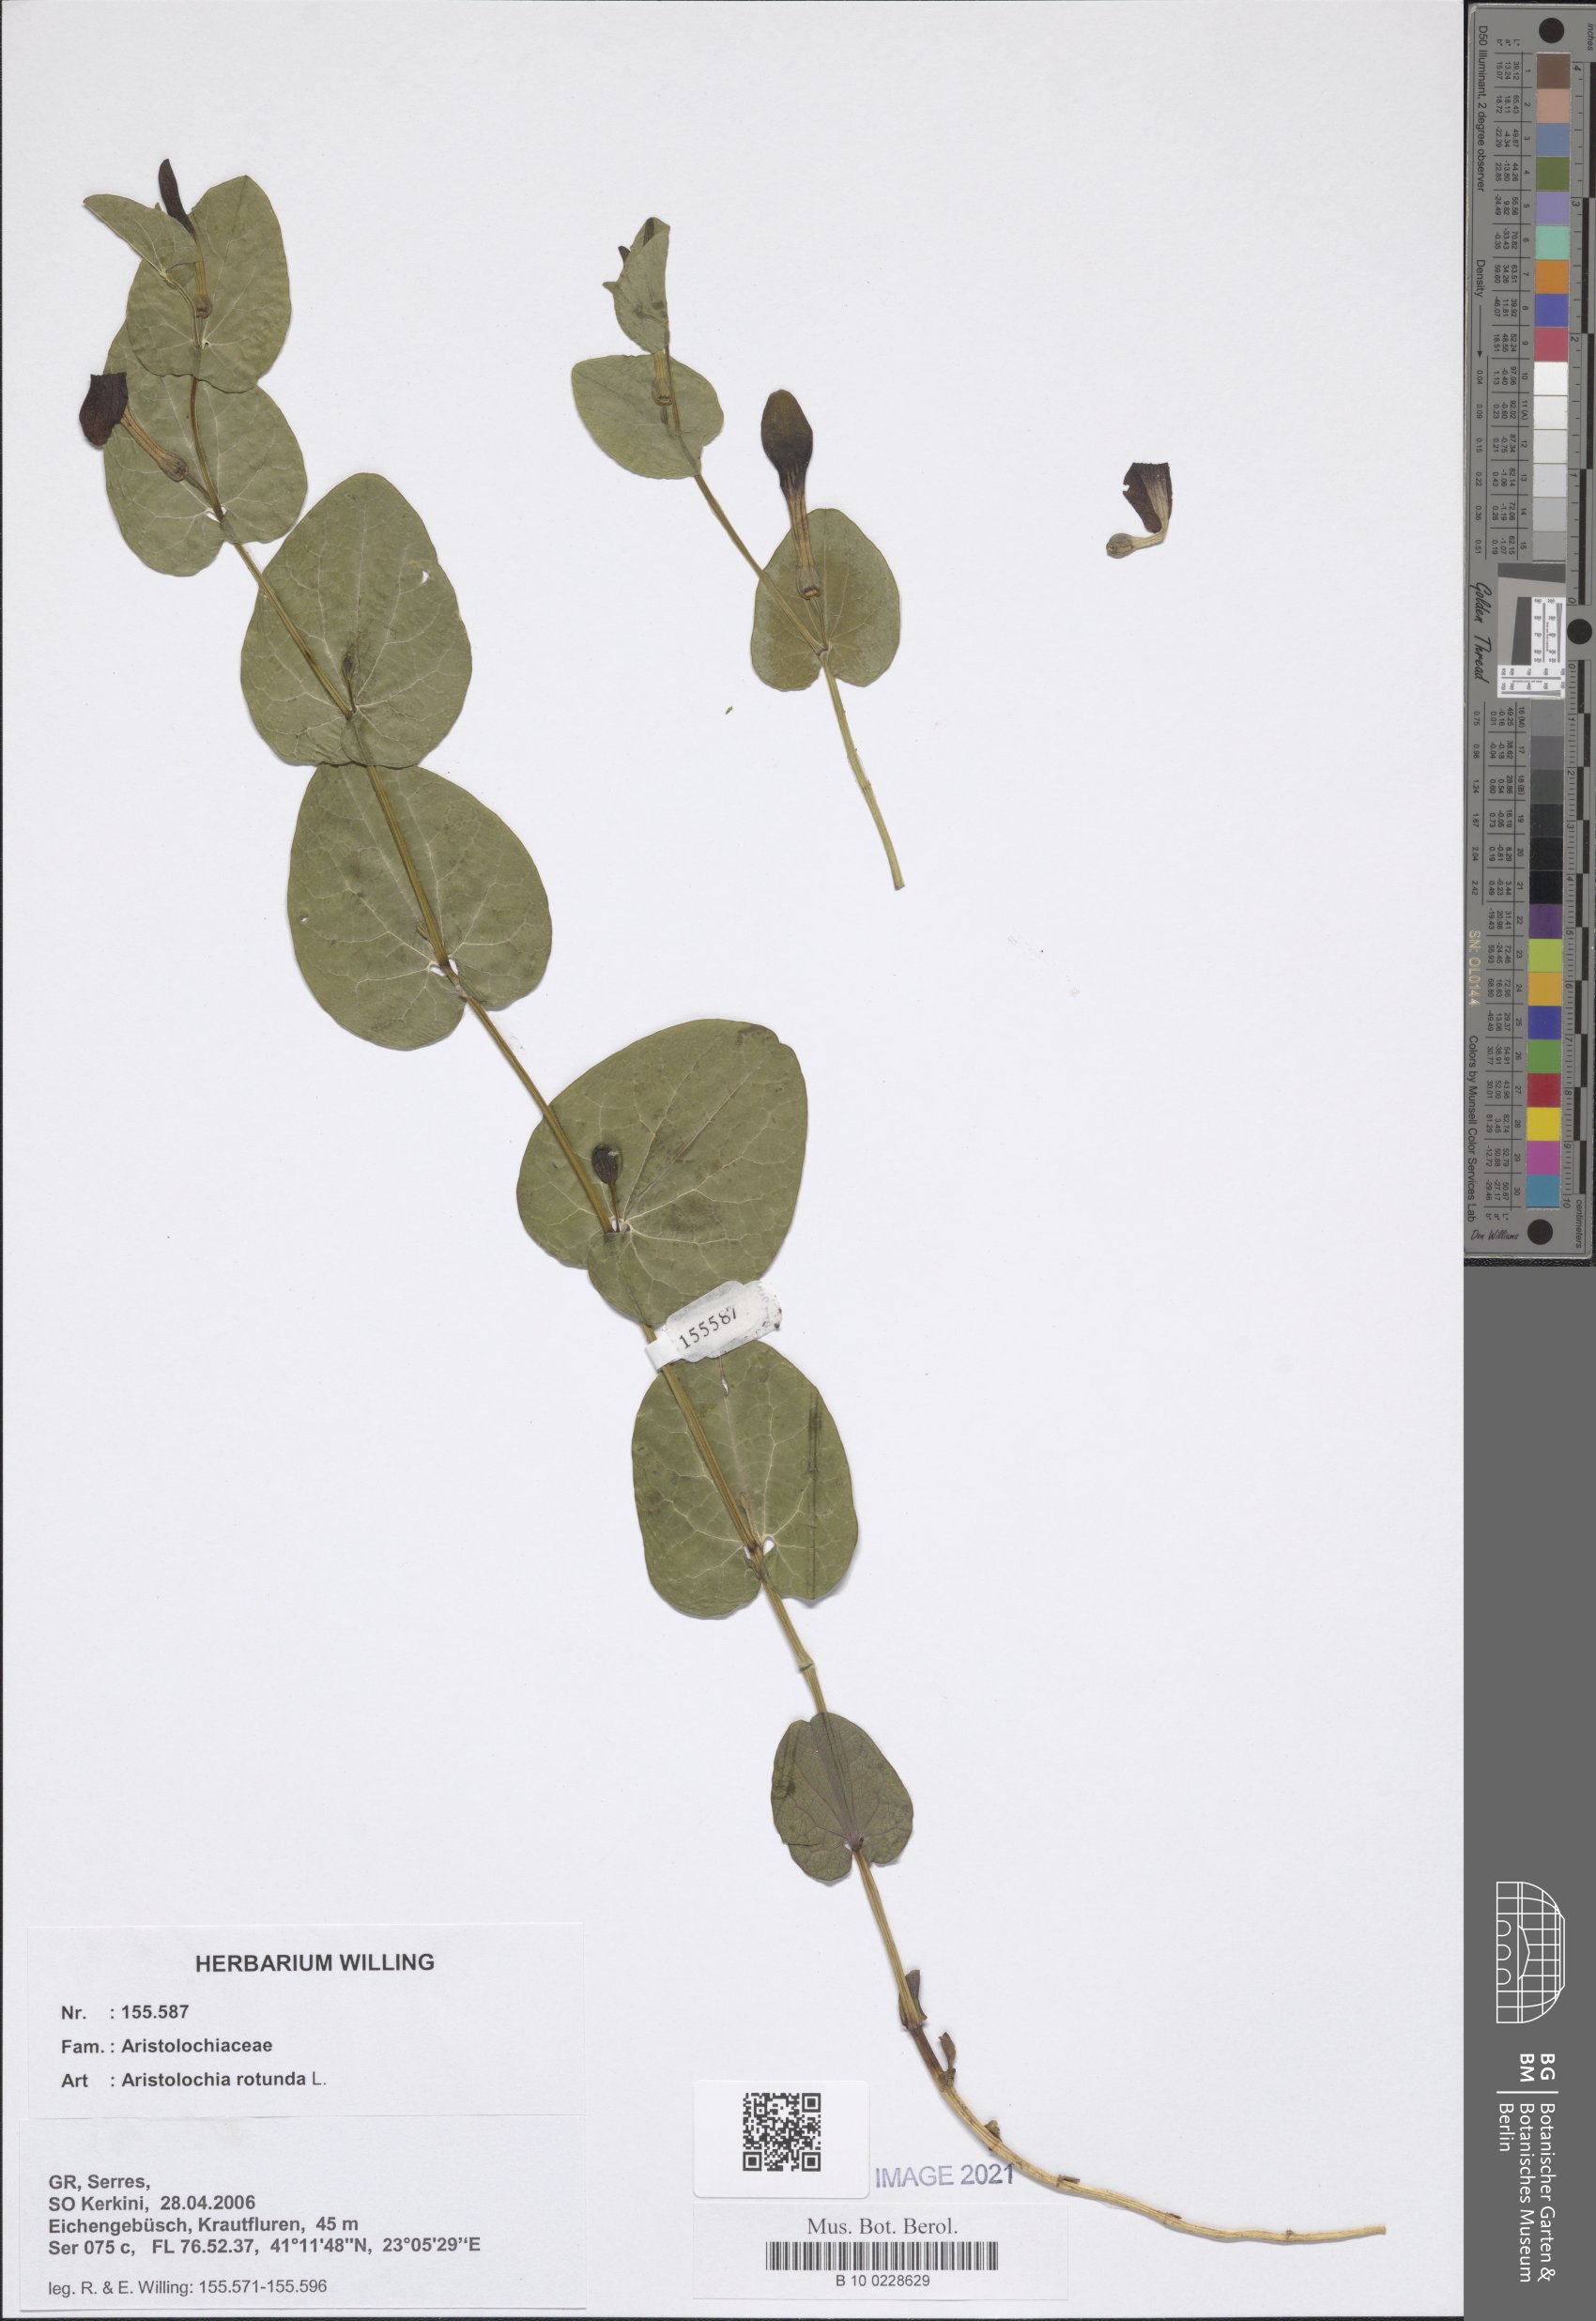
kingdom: Plantae
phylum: Tracheophyta
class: Magnoliopsida
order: Piperales
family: Aristolochiaceae
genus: Aristolochia
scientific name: Aristolochia rotunda
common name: Smearwort
